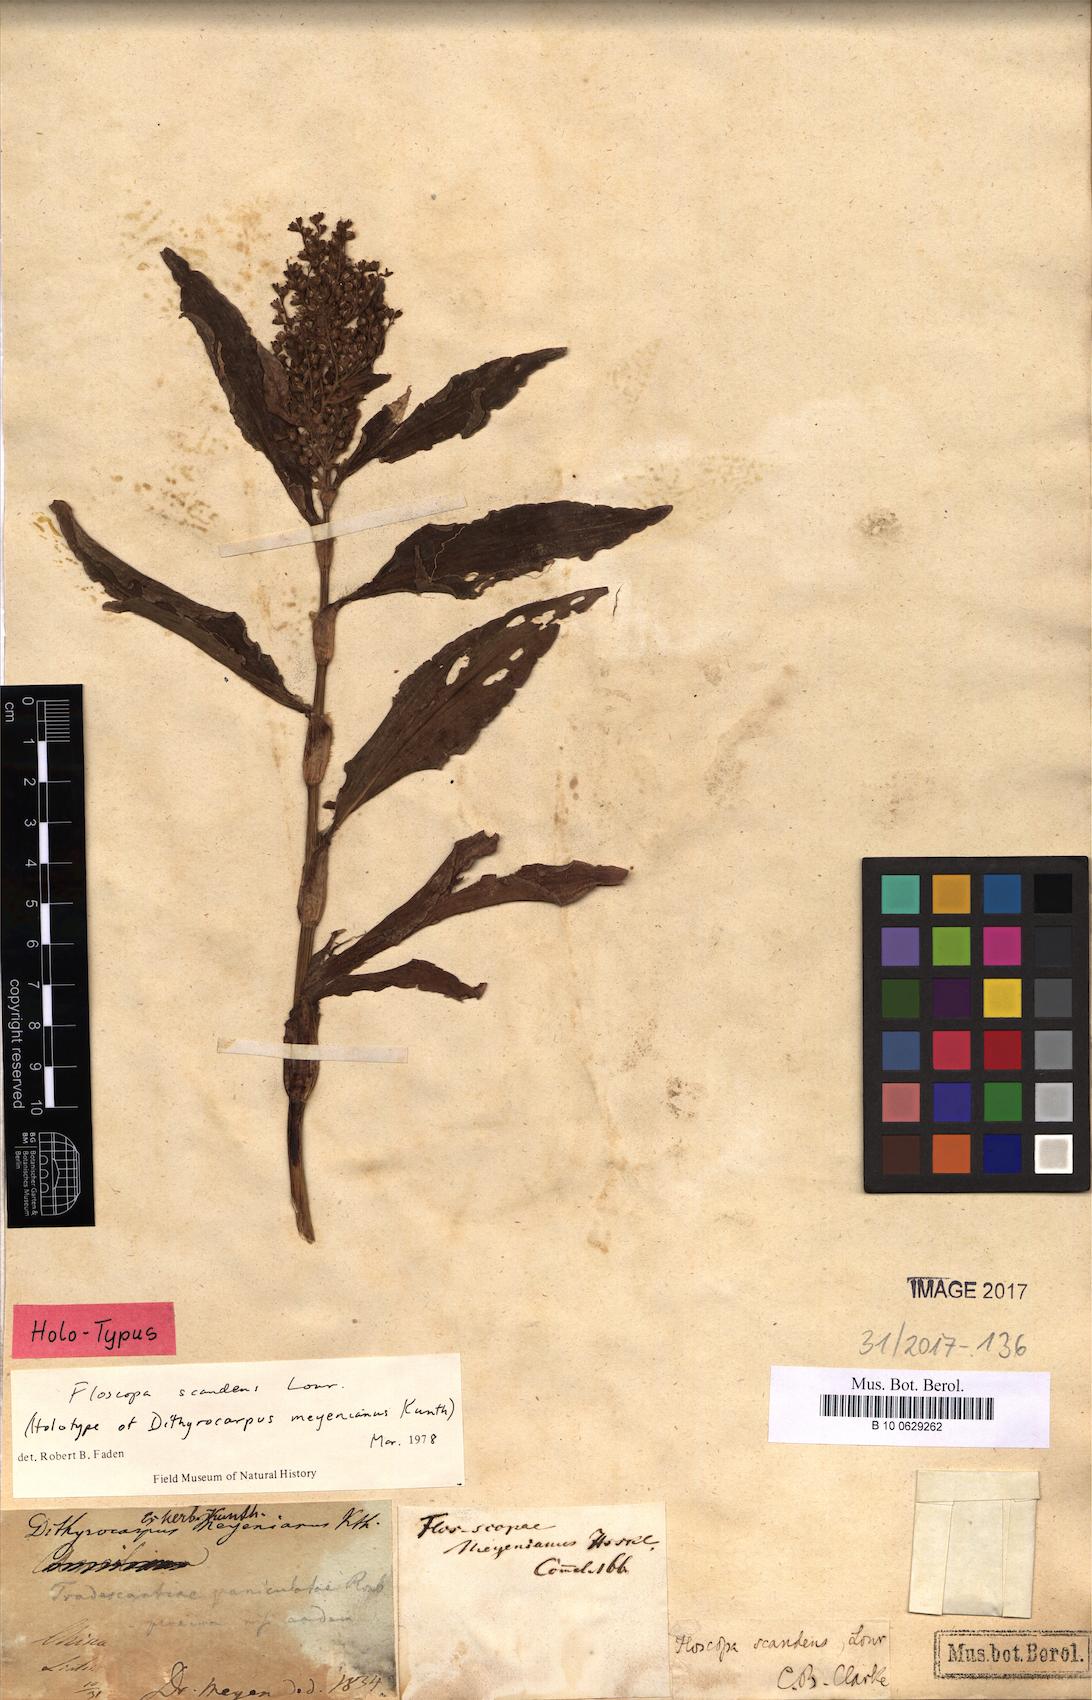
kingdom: Plantae
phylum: Tracheophyta
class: Liliopsida
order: Commelinales
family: Commelinaceae
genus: Floscopa
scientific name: Floscopa scandens
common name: Climbing flower cup
